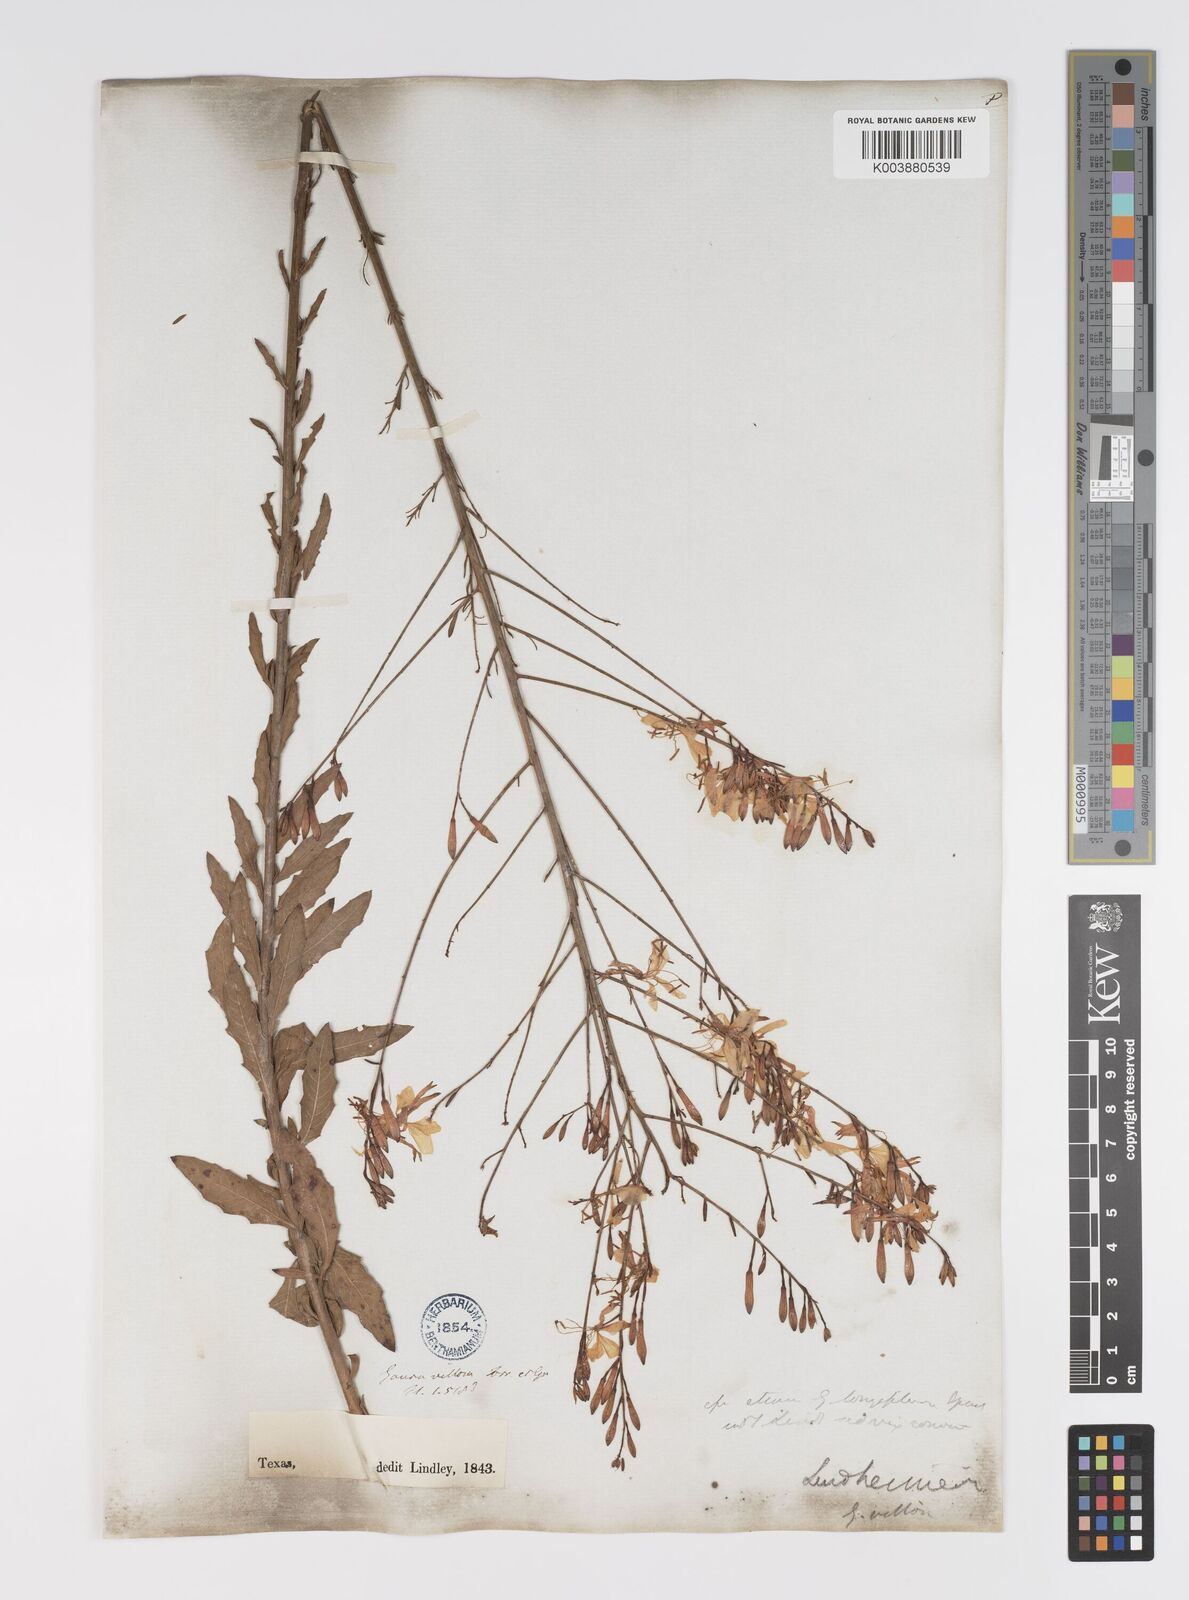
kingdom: Plantae
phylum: Tracheophyta
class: Magnoliopsida
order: Myrtales
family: Onagraceae
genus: Oenothera
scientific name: Oenothera lindheimeri
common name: Lindheimer's beeblossom
